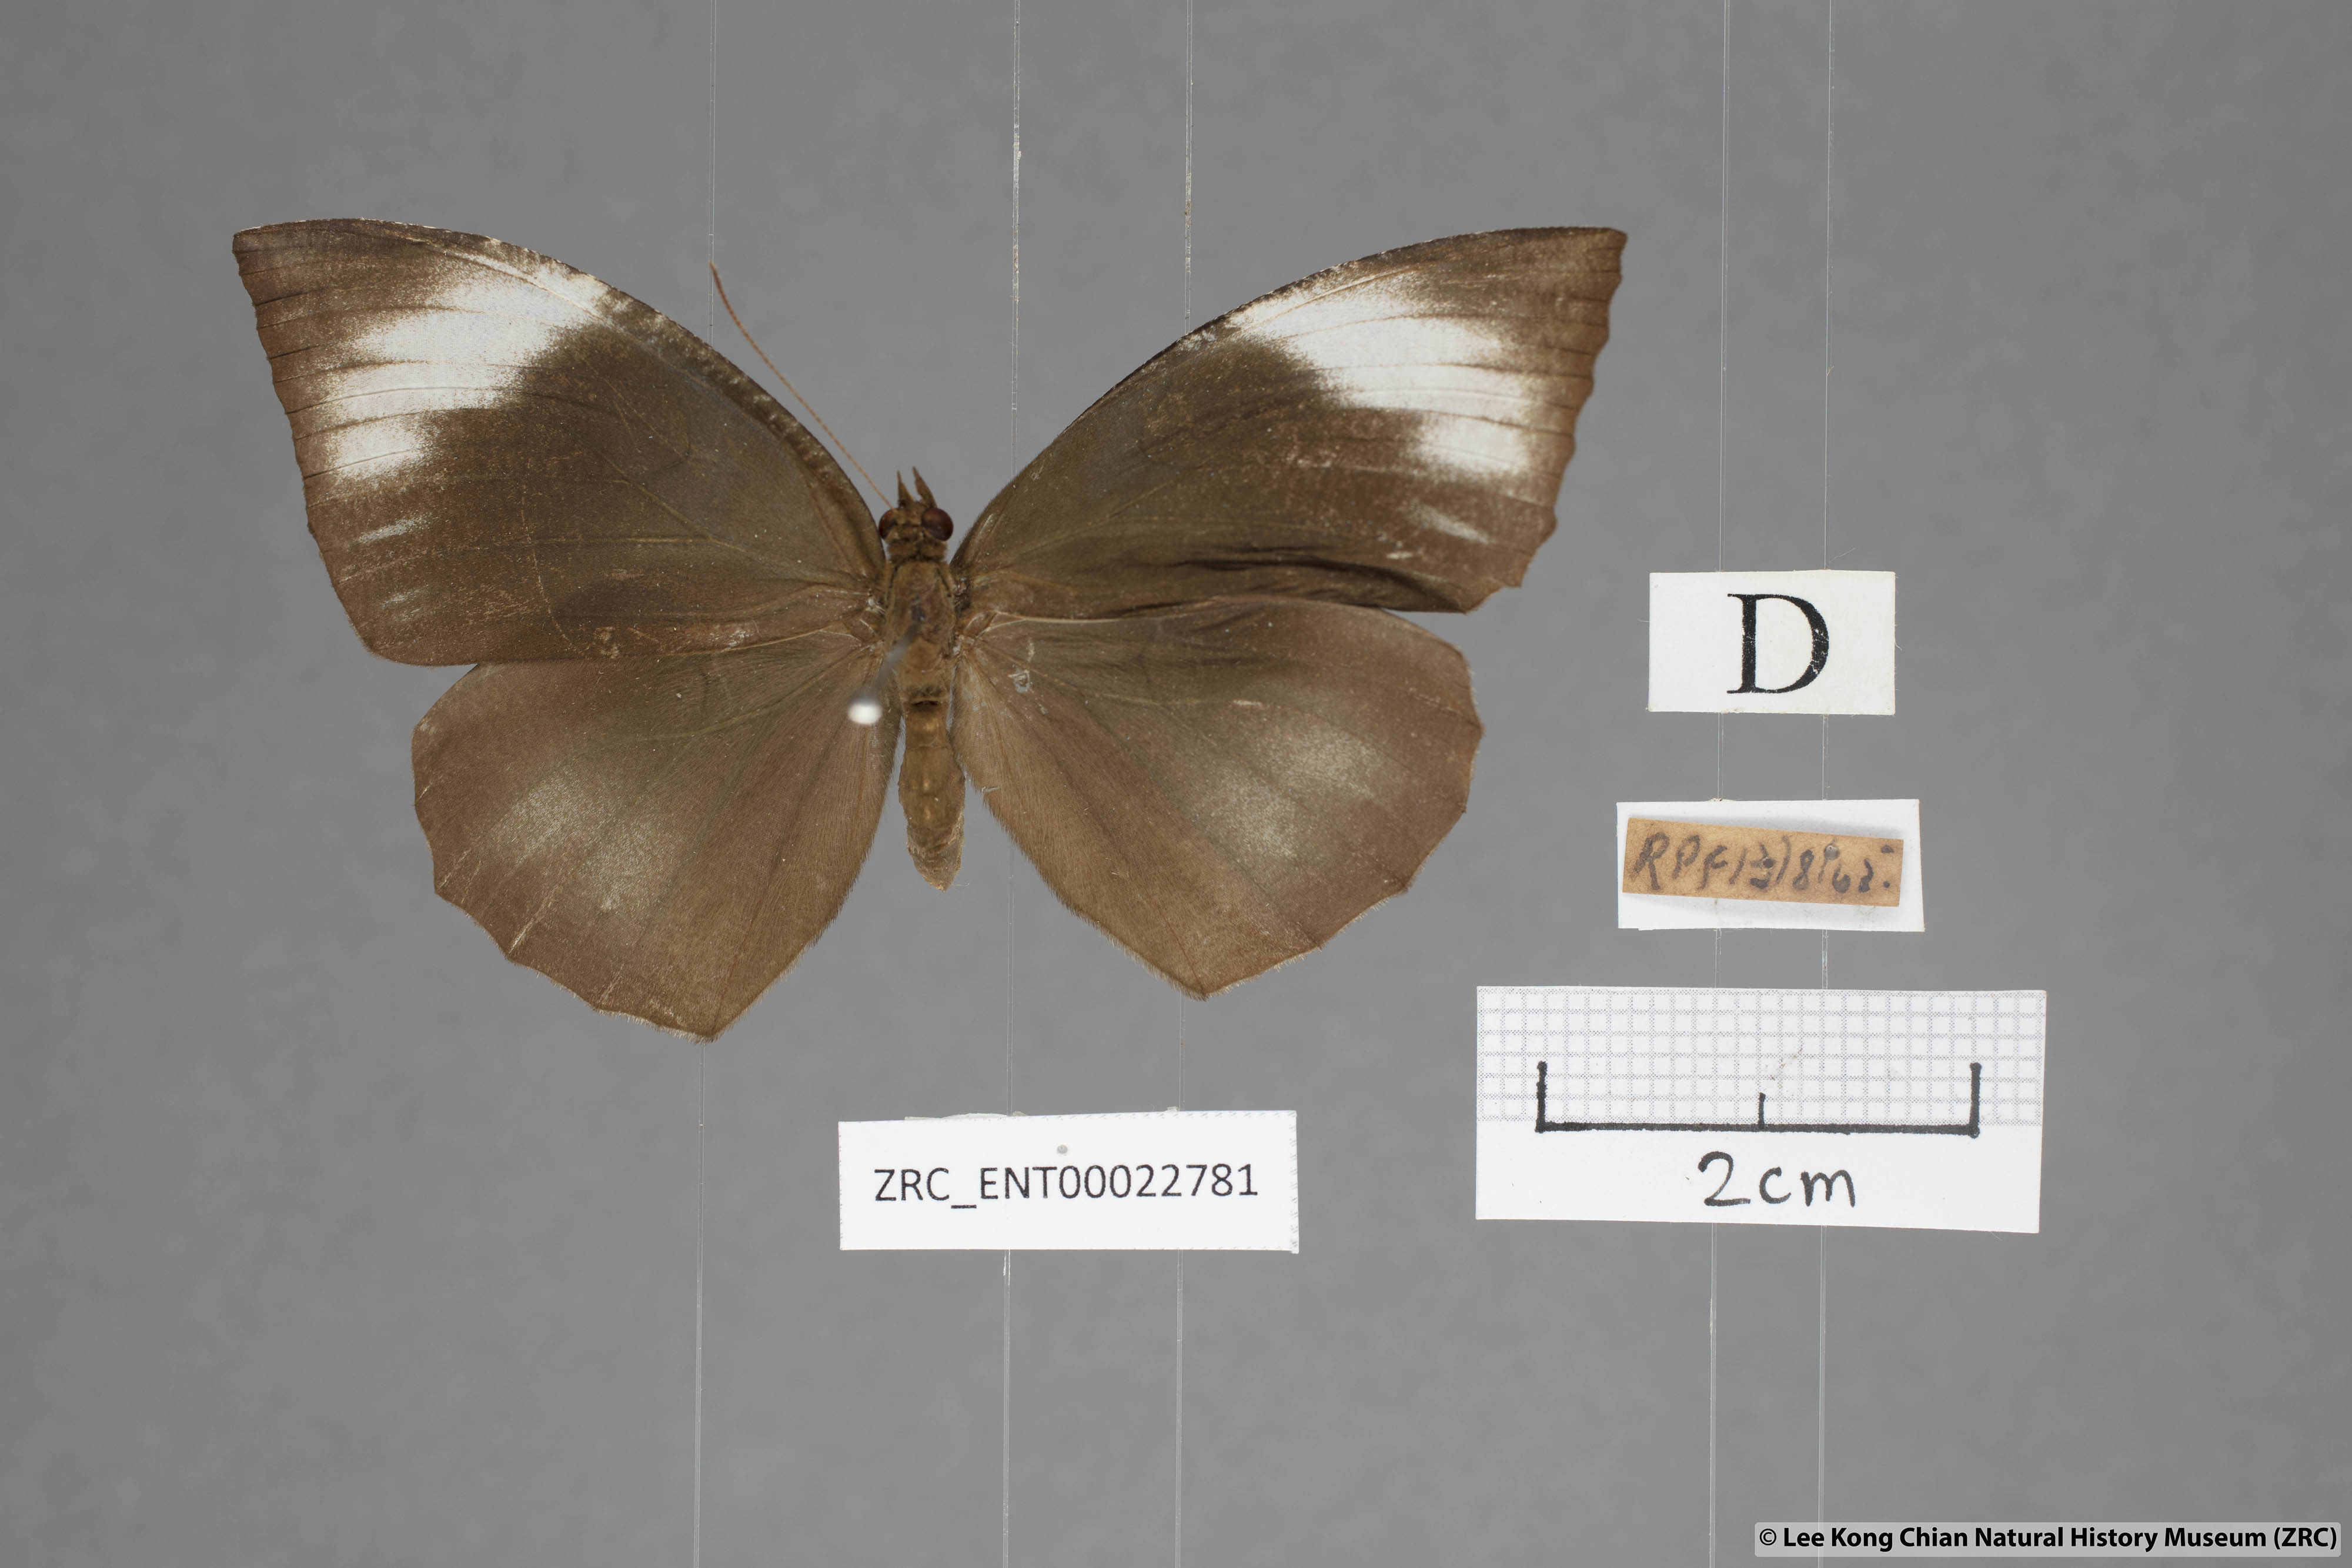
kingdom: Animalia
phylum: Arthropoda
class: Insecta
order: Lepidoptera
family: Nymphalidae
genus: Elymnias
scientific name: Elymnias penanga
